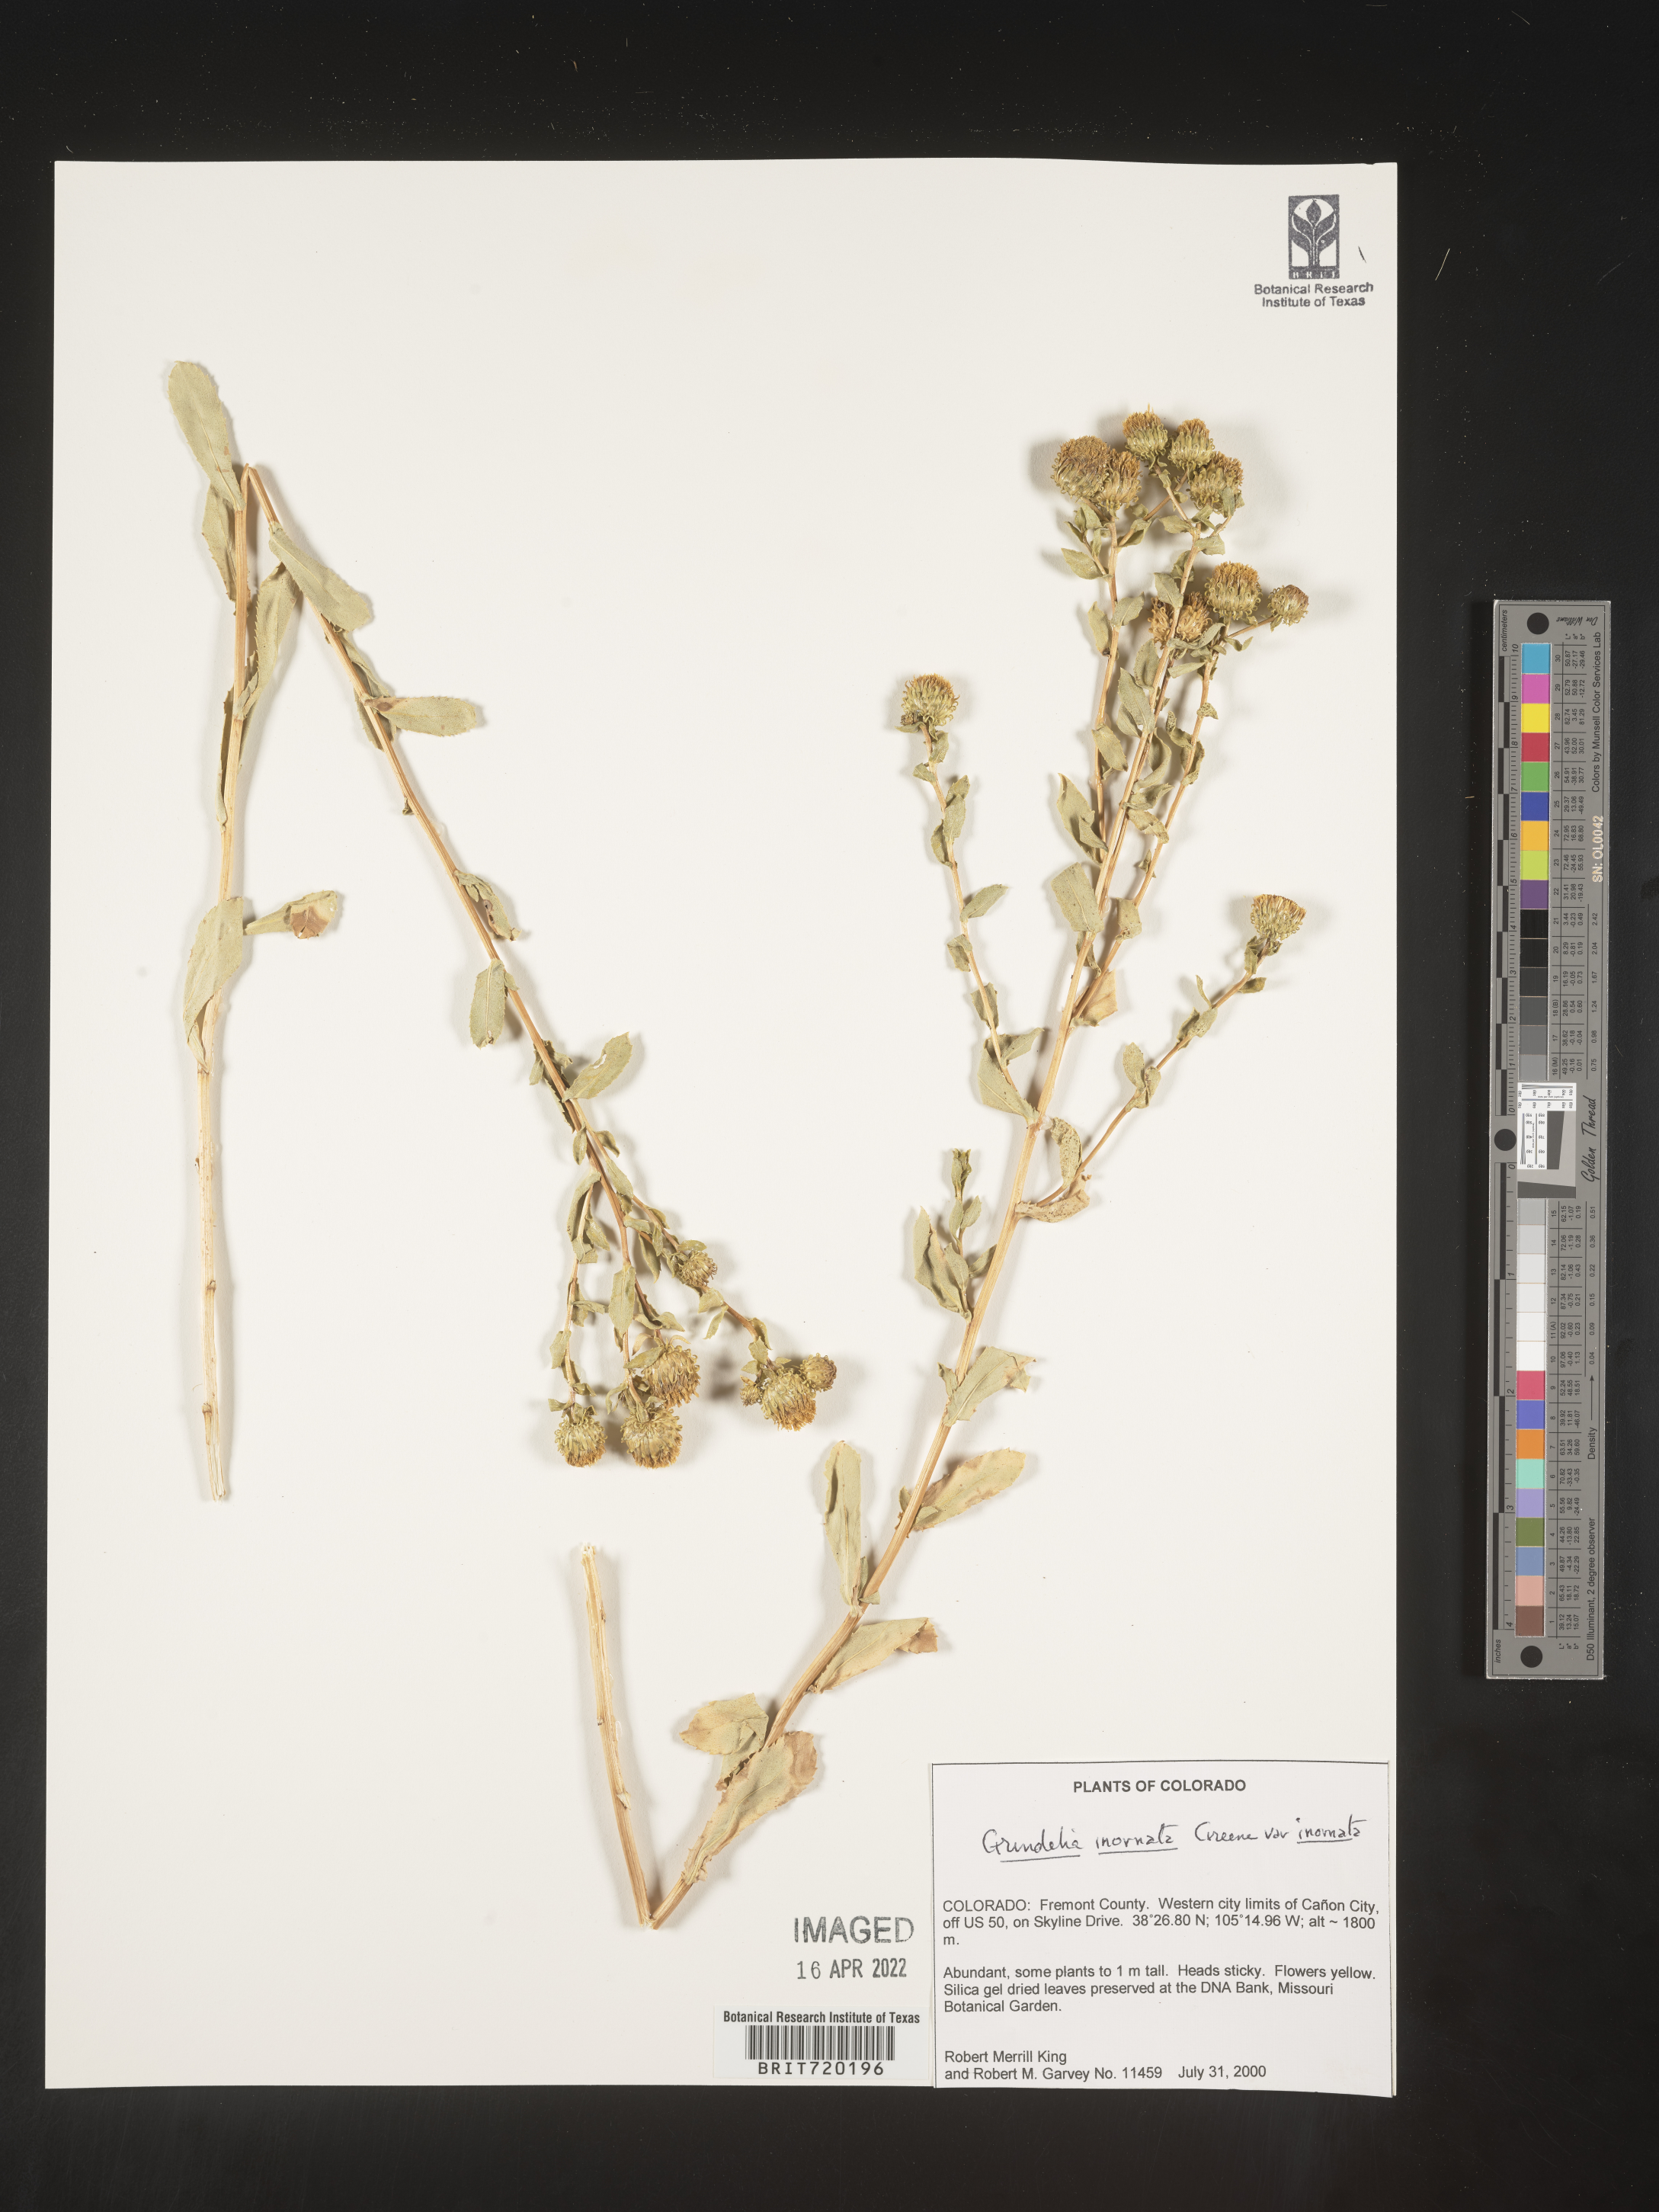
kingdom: Plantae
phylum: Tracheophyta
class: Magnoliopsida
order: Asterales
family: Asteraceae
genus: Grindelia
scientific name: Grindelia hirsutula
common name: Hairy gumweed
